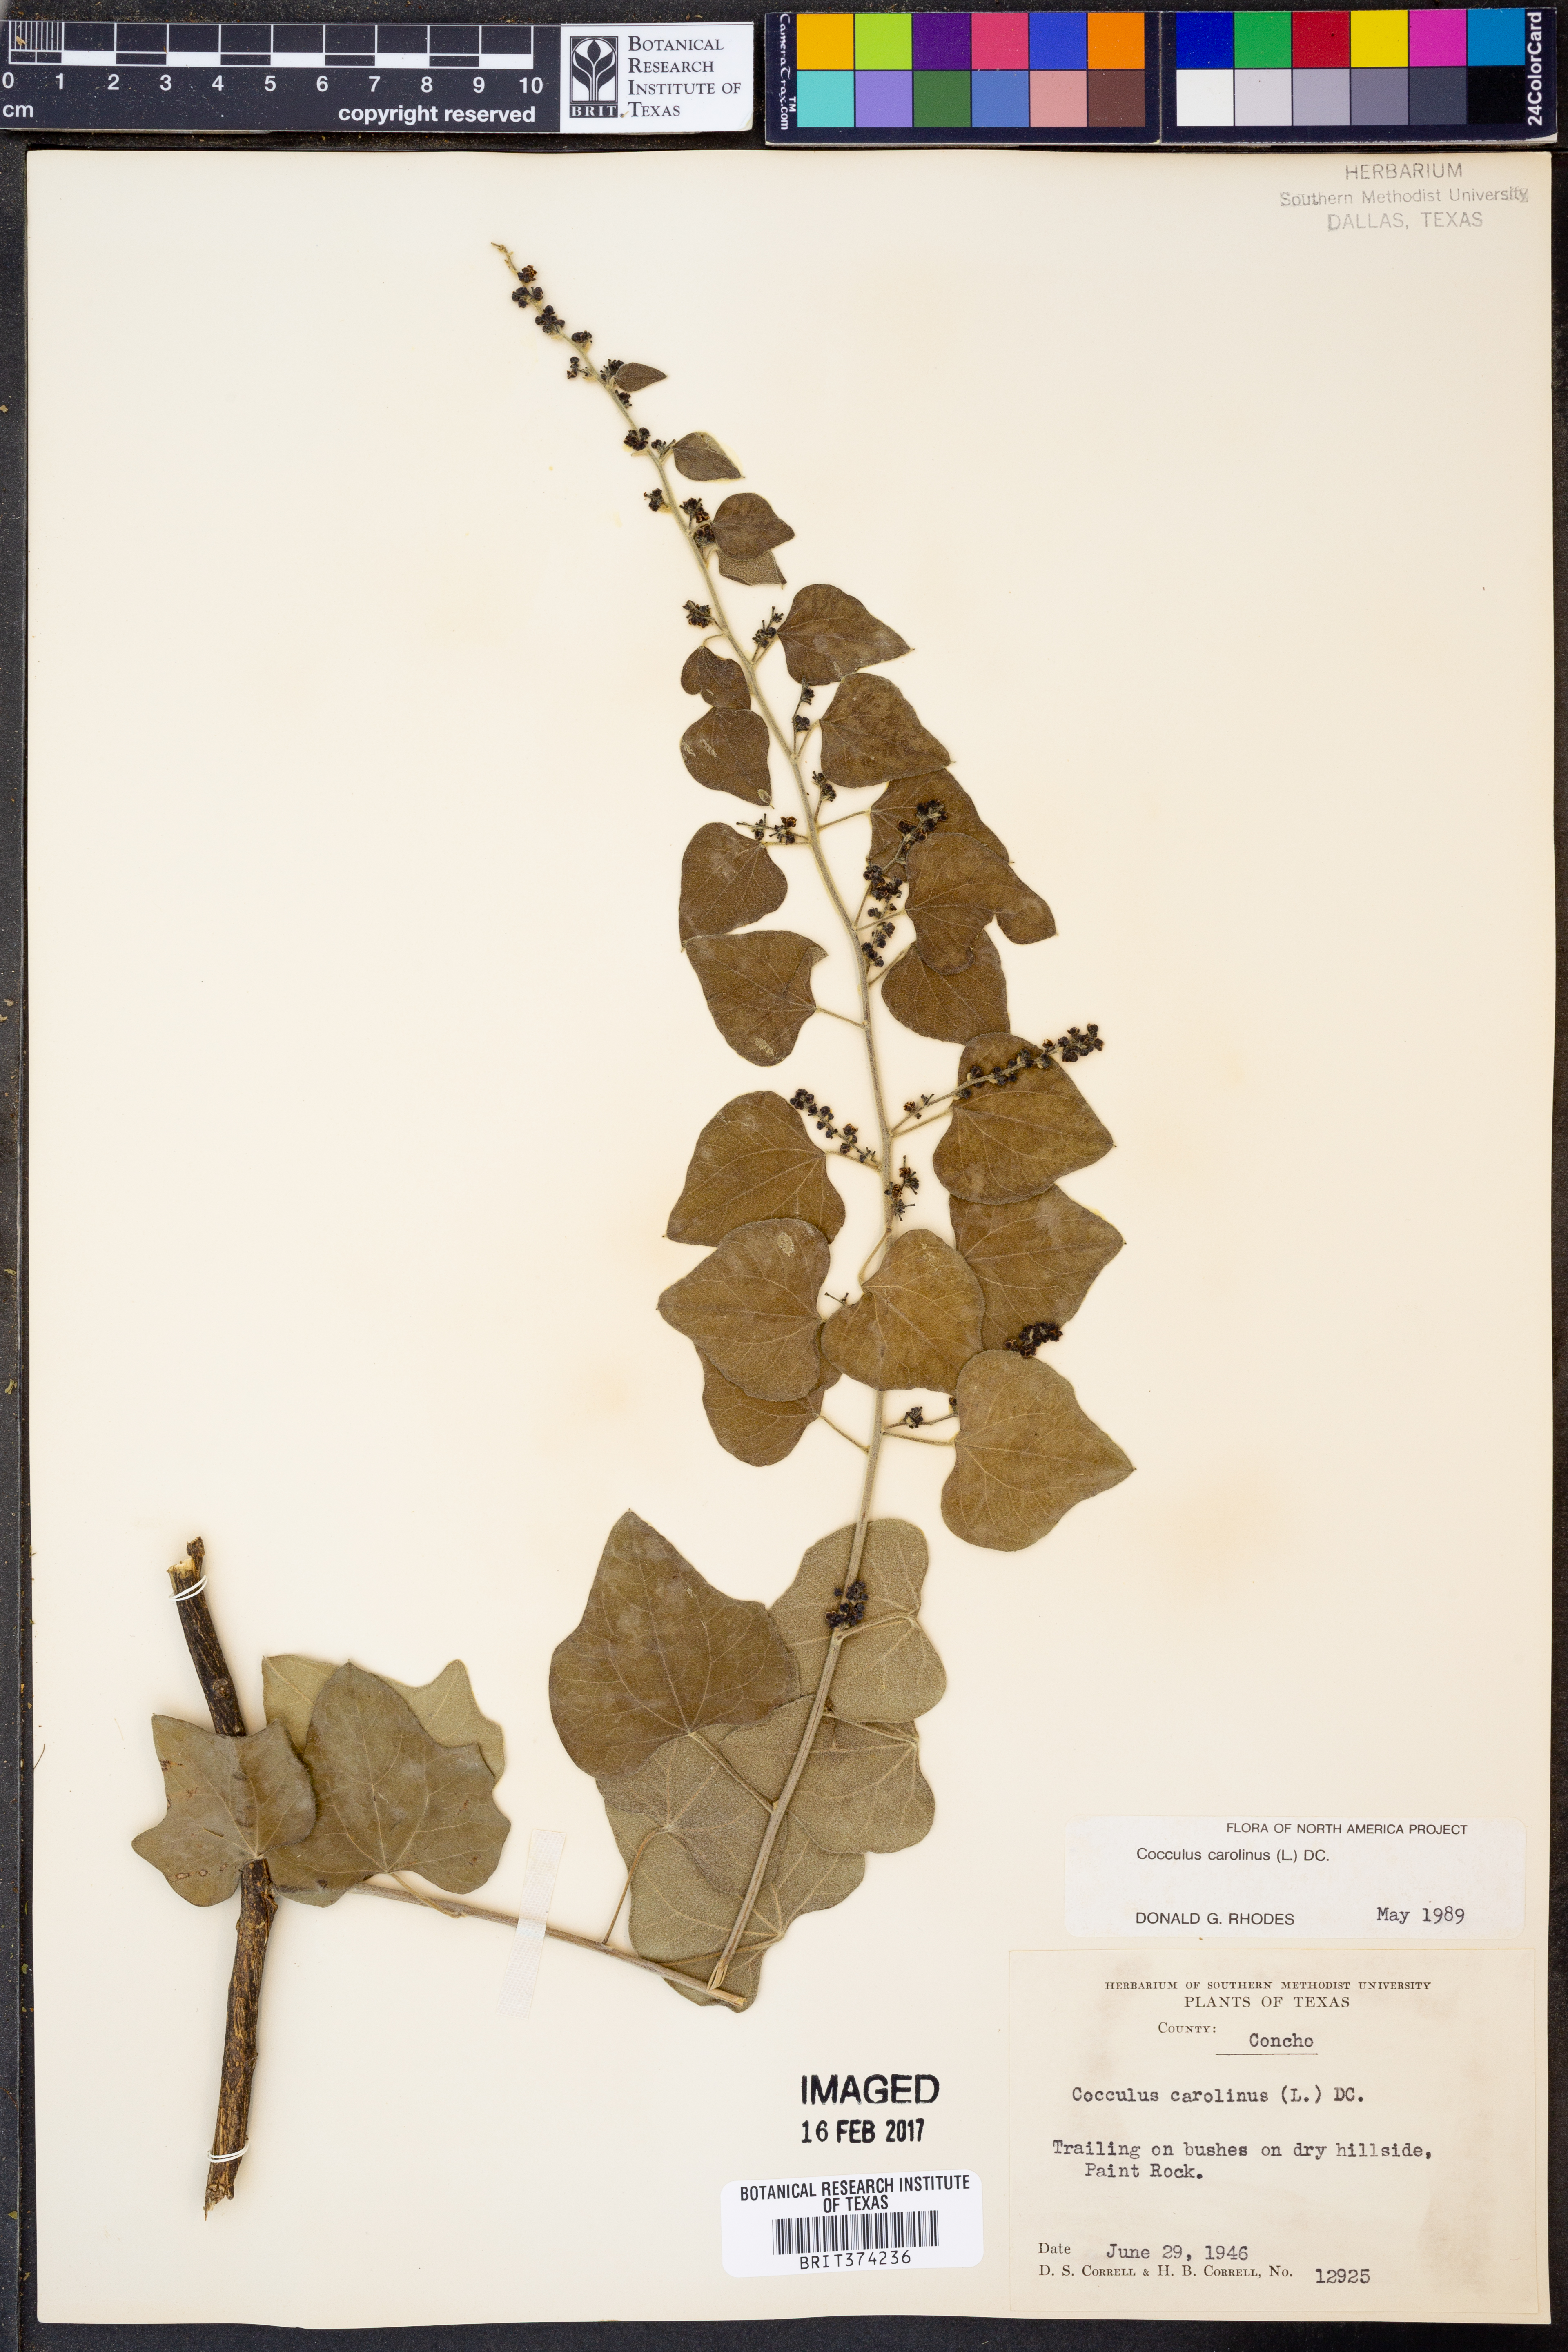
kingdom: Plantae
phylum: Tracheophyta
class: Magnoliopsida
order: Ranunculales
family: Menispermaceae
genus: Cocculus
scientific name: Cocculus carolinus
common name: Carolina moonseed
